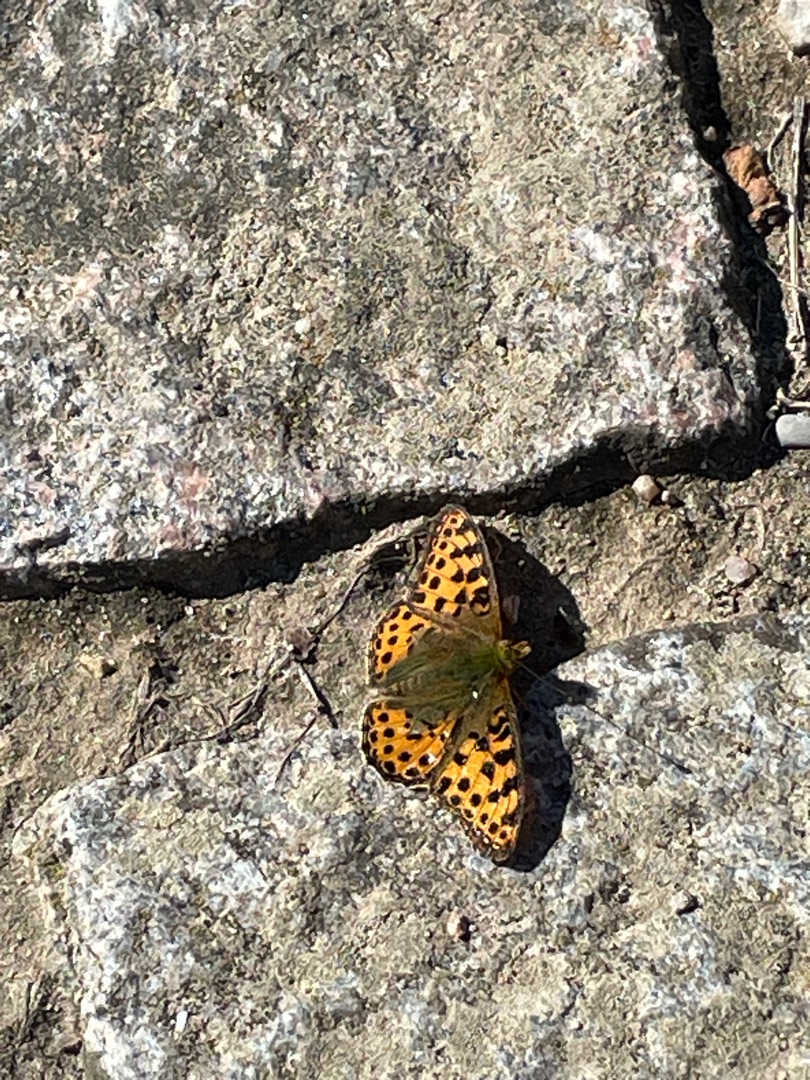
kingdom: Animalia
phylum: Arthropoda
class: Insecta
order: Lepidoptera
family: Nymphalidae
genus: Issoria
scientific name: Issoria lathonia
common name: Storplettet perlemorsommerfugl
